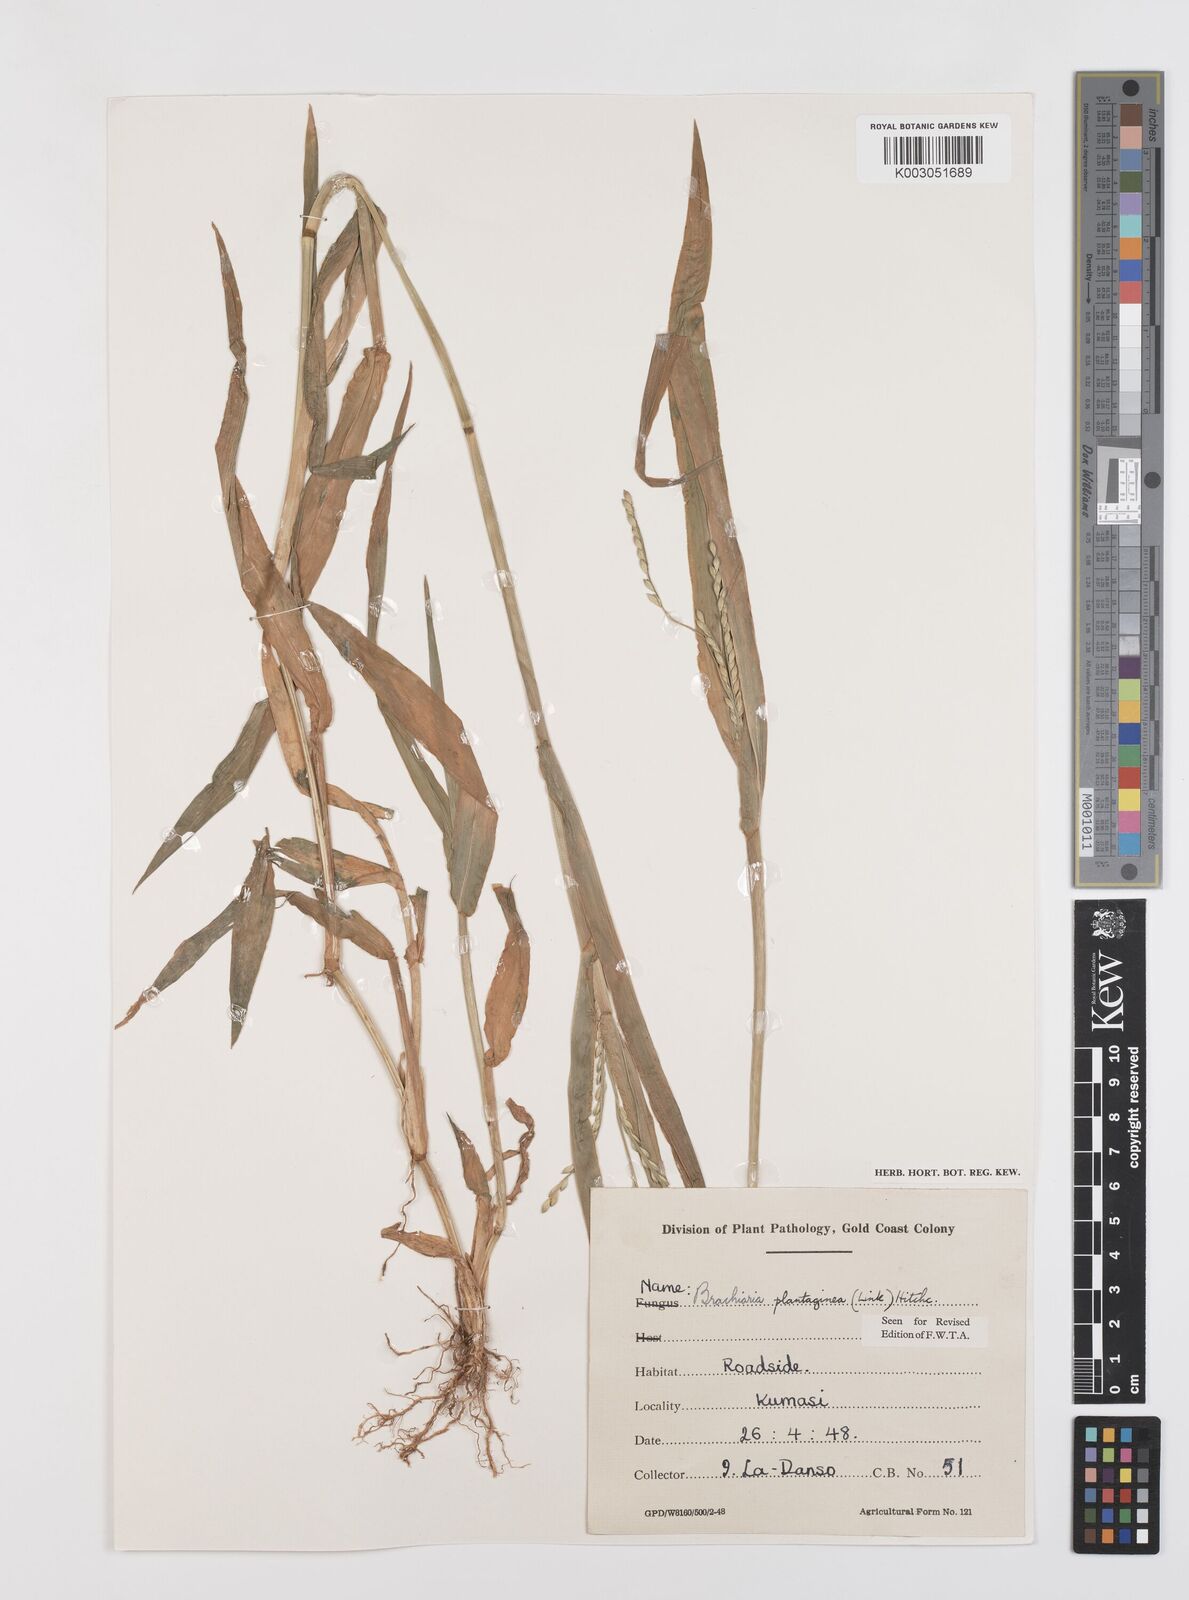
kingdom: Plantae
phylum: Tracheophyta
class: Liliopsida
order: Poales
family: Poaceae
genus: Urochloa
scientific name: Urochloa plantaginea
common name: Plantain signalgrass
